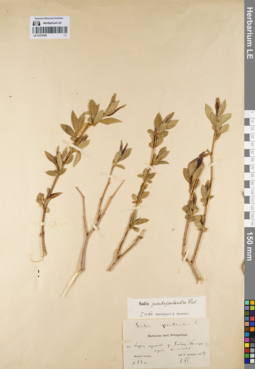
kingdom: Plantae
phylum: Tracheophyta
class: Magnoliopsida
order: Malpighiales
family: Salicaceae
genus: Salix
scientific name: Salix pseudopentandra
